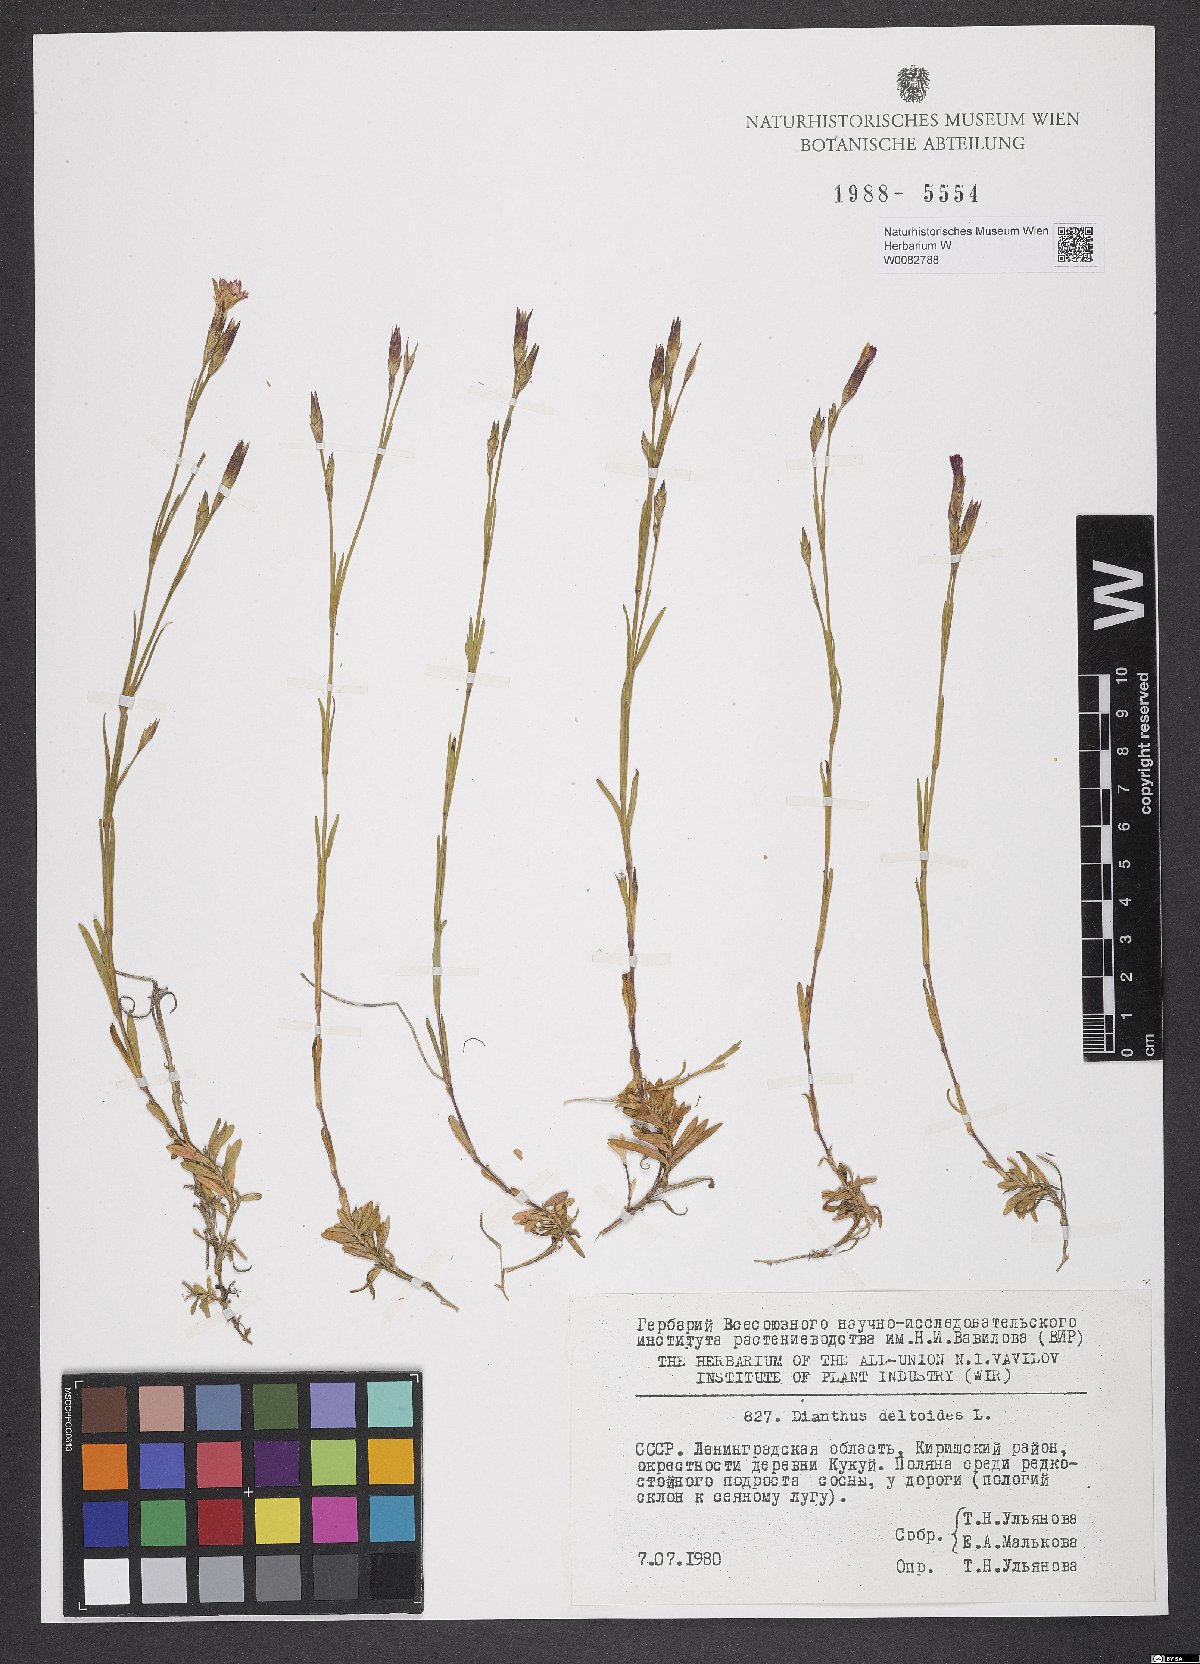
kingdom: Plantae
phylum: Tracheophyta
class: Magnoliopsida
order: Caryophyllales
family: Caryophyllaceae
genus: Dianthus
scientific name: Dianthus deltoides
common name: Maiden pink
